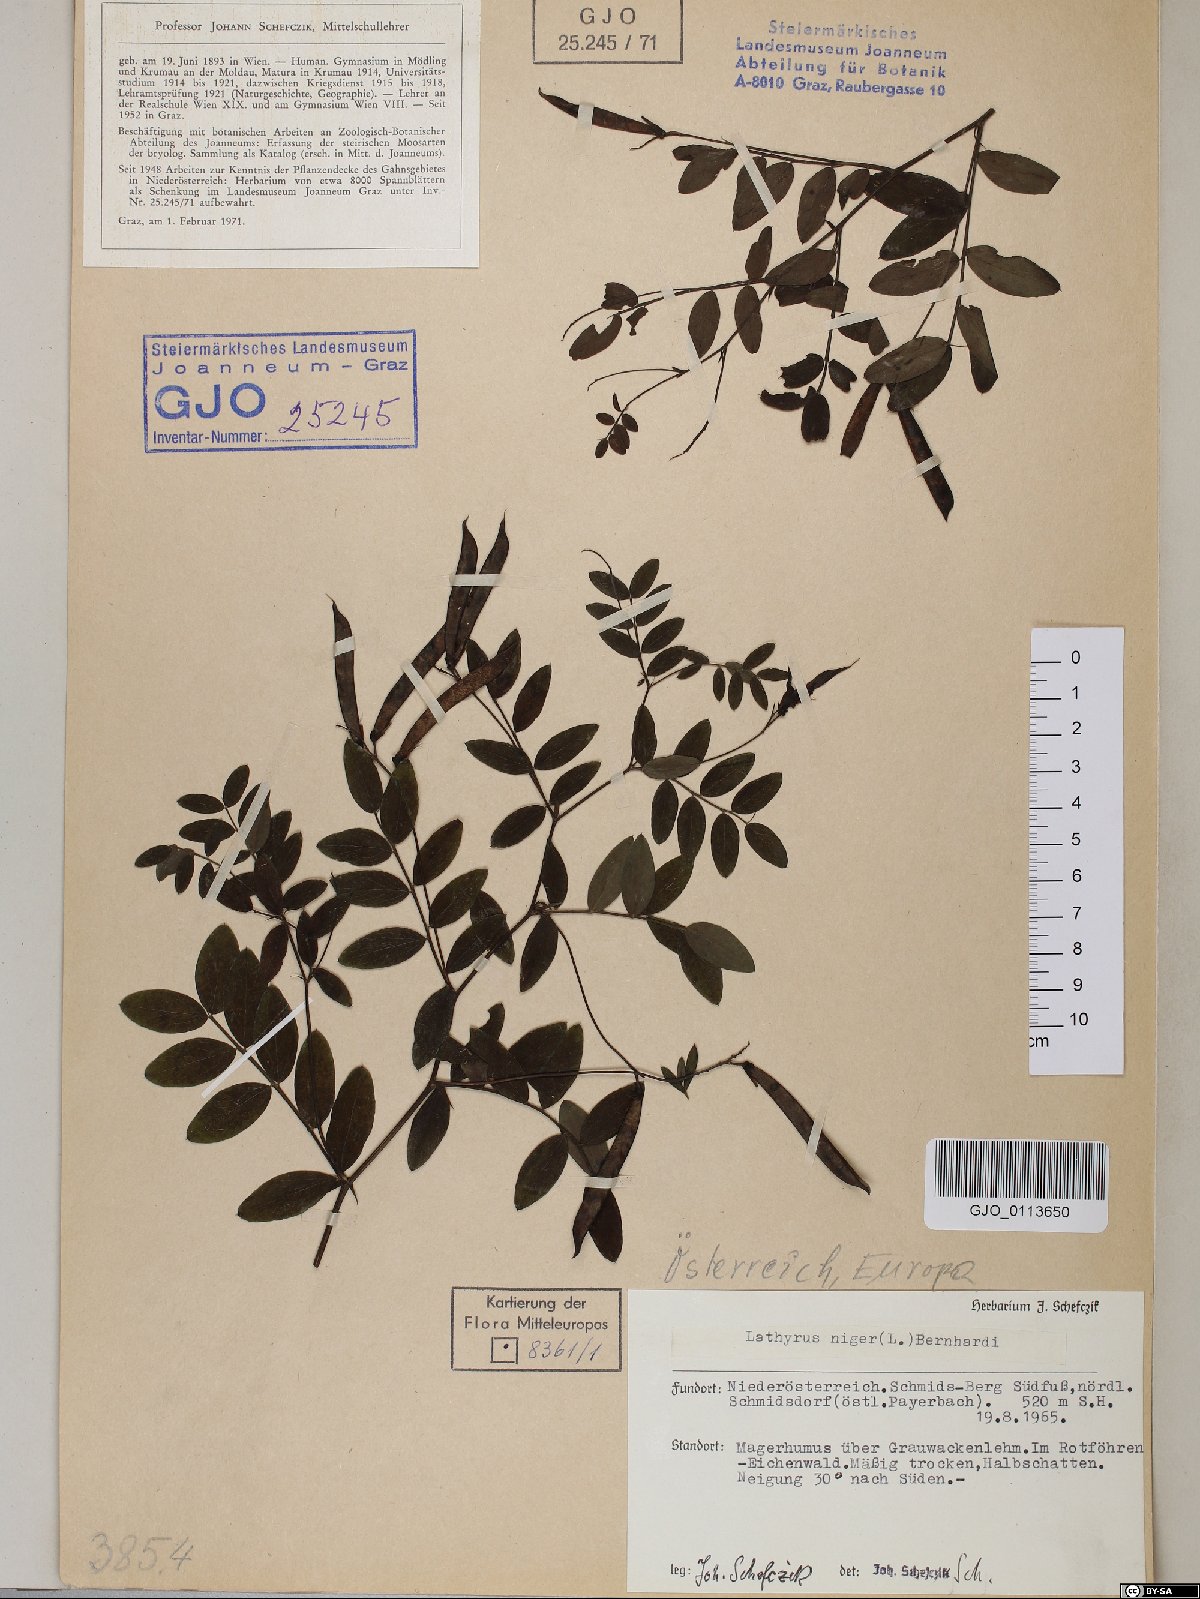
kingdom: Plantae
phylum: Tracheophyta
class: Magnoliopsida
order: Fabales
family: Fabaceae
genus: Lathyrus
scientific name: Lathyrus niger
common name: Black pea
